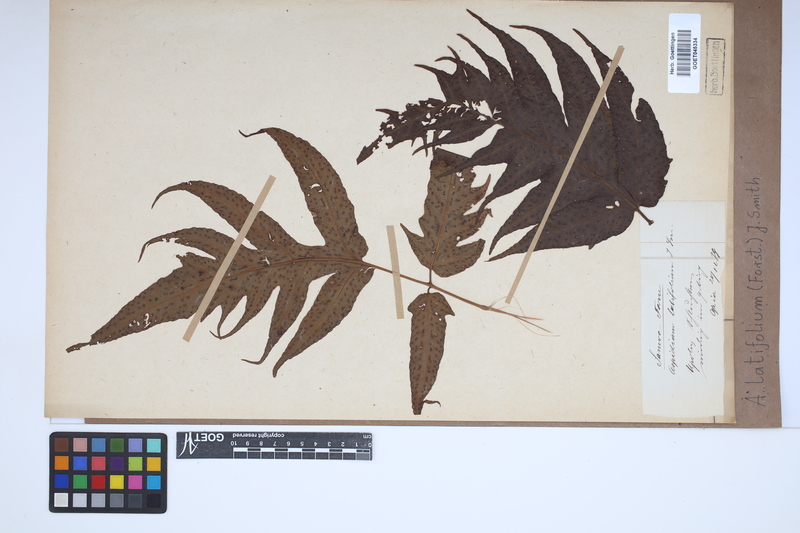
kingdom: Plantae
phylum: Tracheophyta
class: Polypodiopsida
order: Polypodiales
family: Tectariaceae
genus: Tectaria
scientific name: Tectaria latifolia
